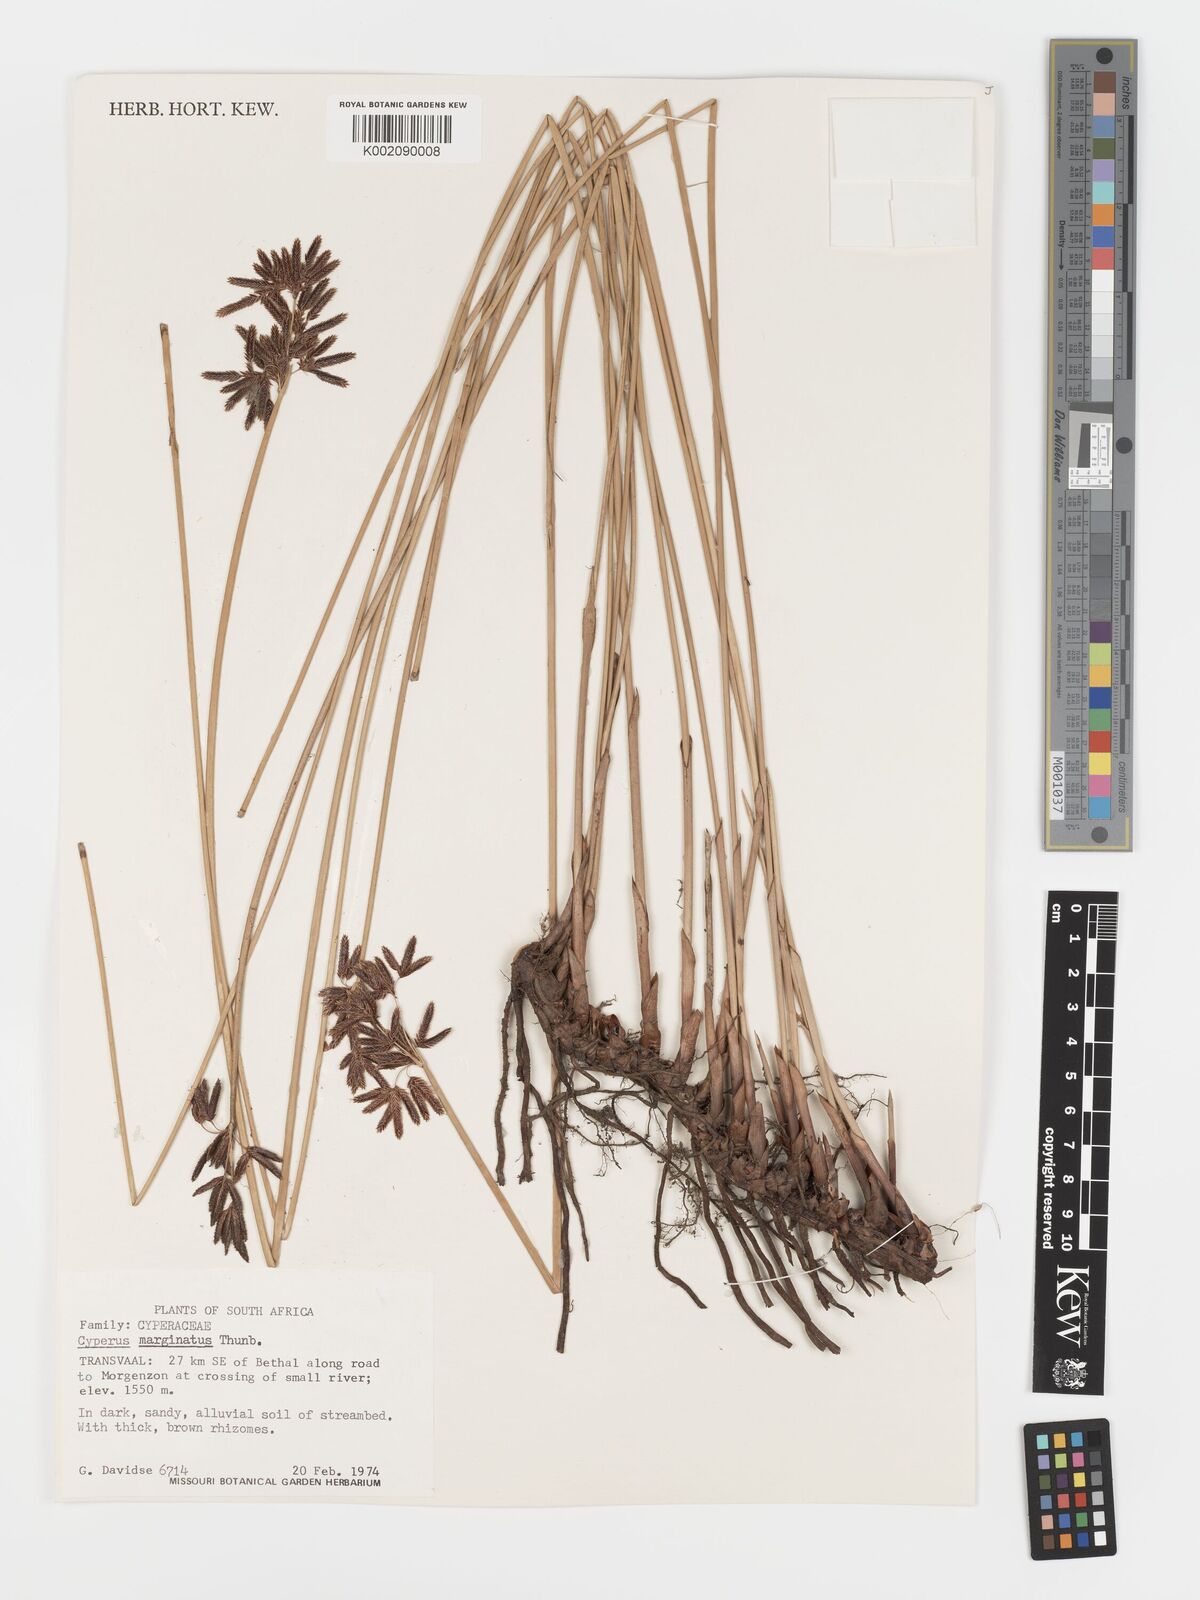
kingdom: Plantae
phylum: Tracheophyta
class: Liliopsida
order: Poales
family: Cyperaceae
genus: Cyperus
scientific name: Cyperus marginatus
